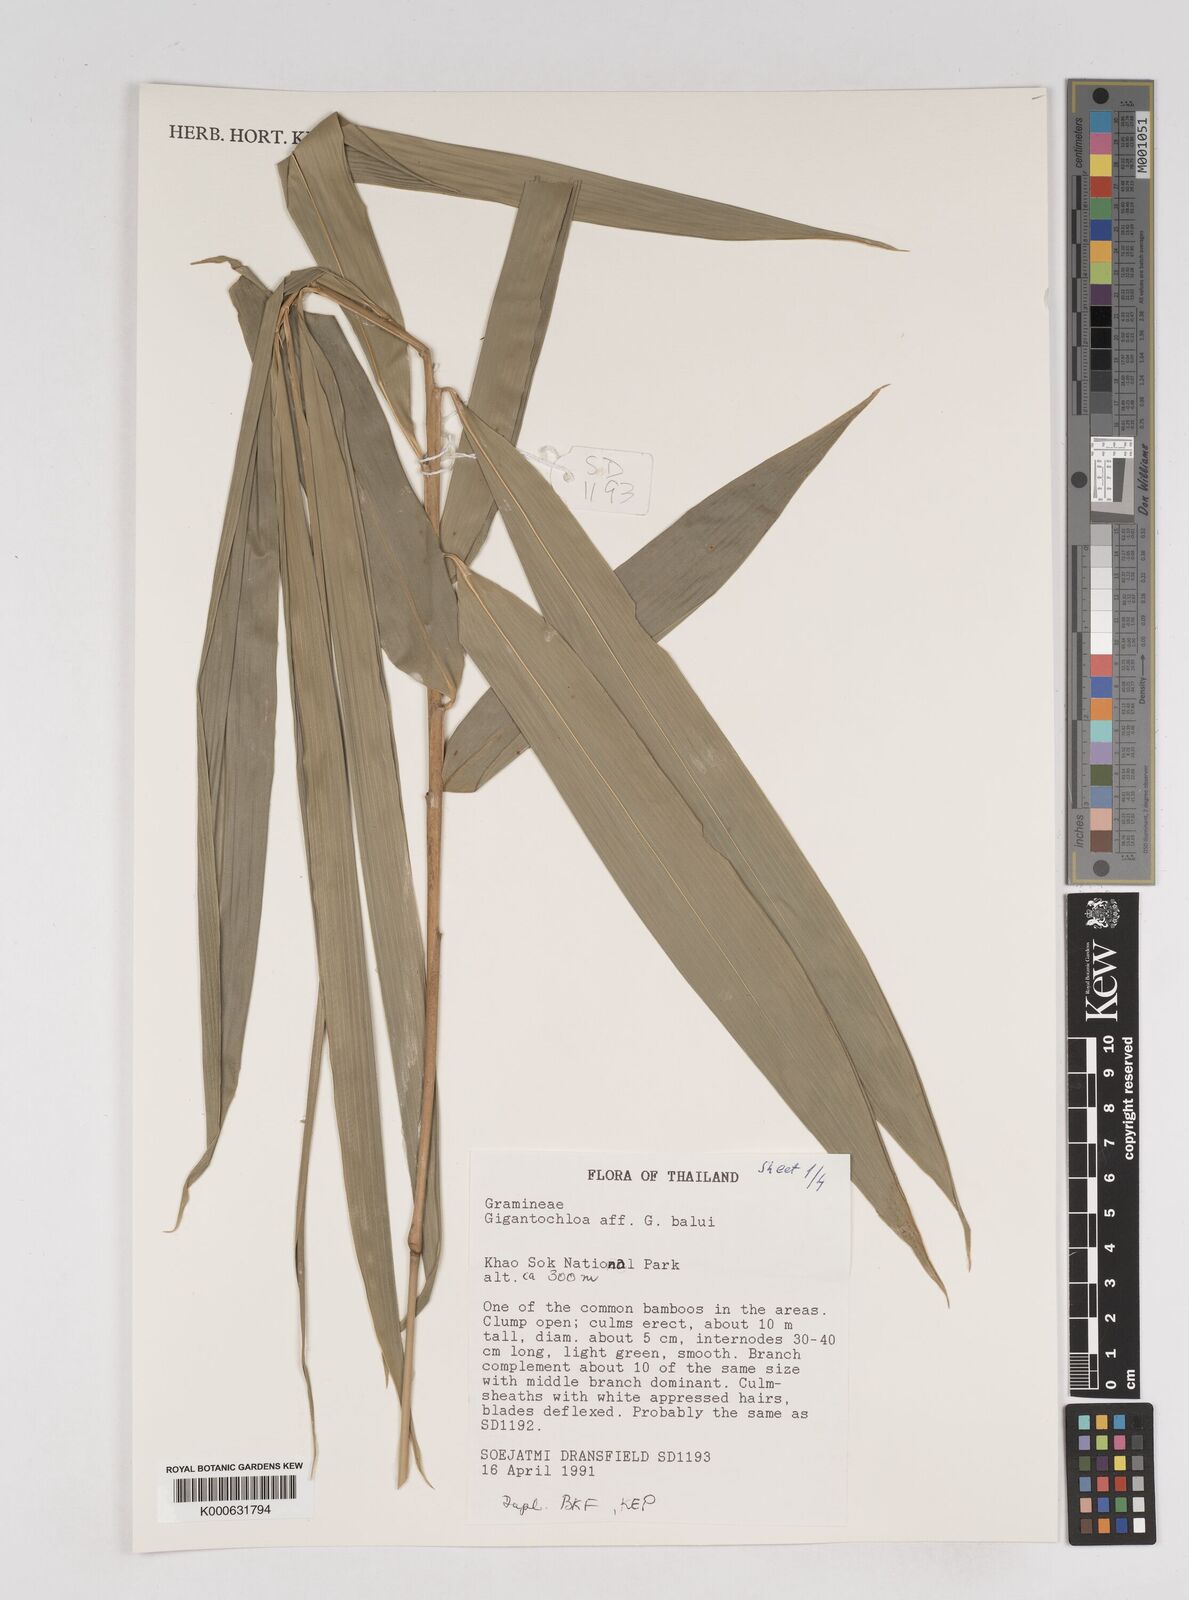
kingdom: Plantae
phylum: Tracheophyta
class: Liliopsida
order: Poales
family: Poaceae
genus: Gigantochloa
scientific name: Gigantochloa
